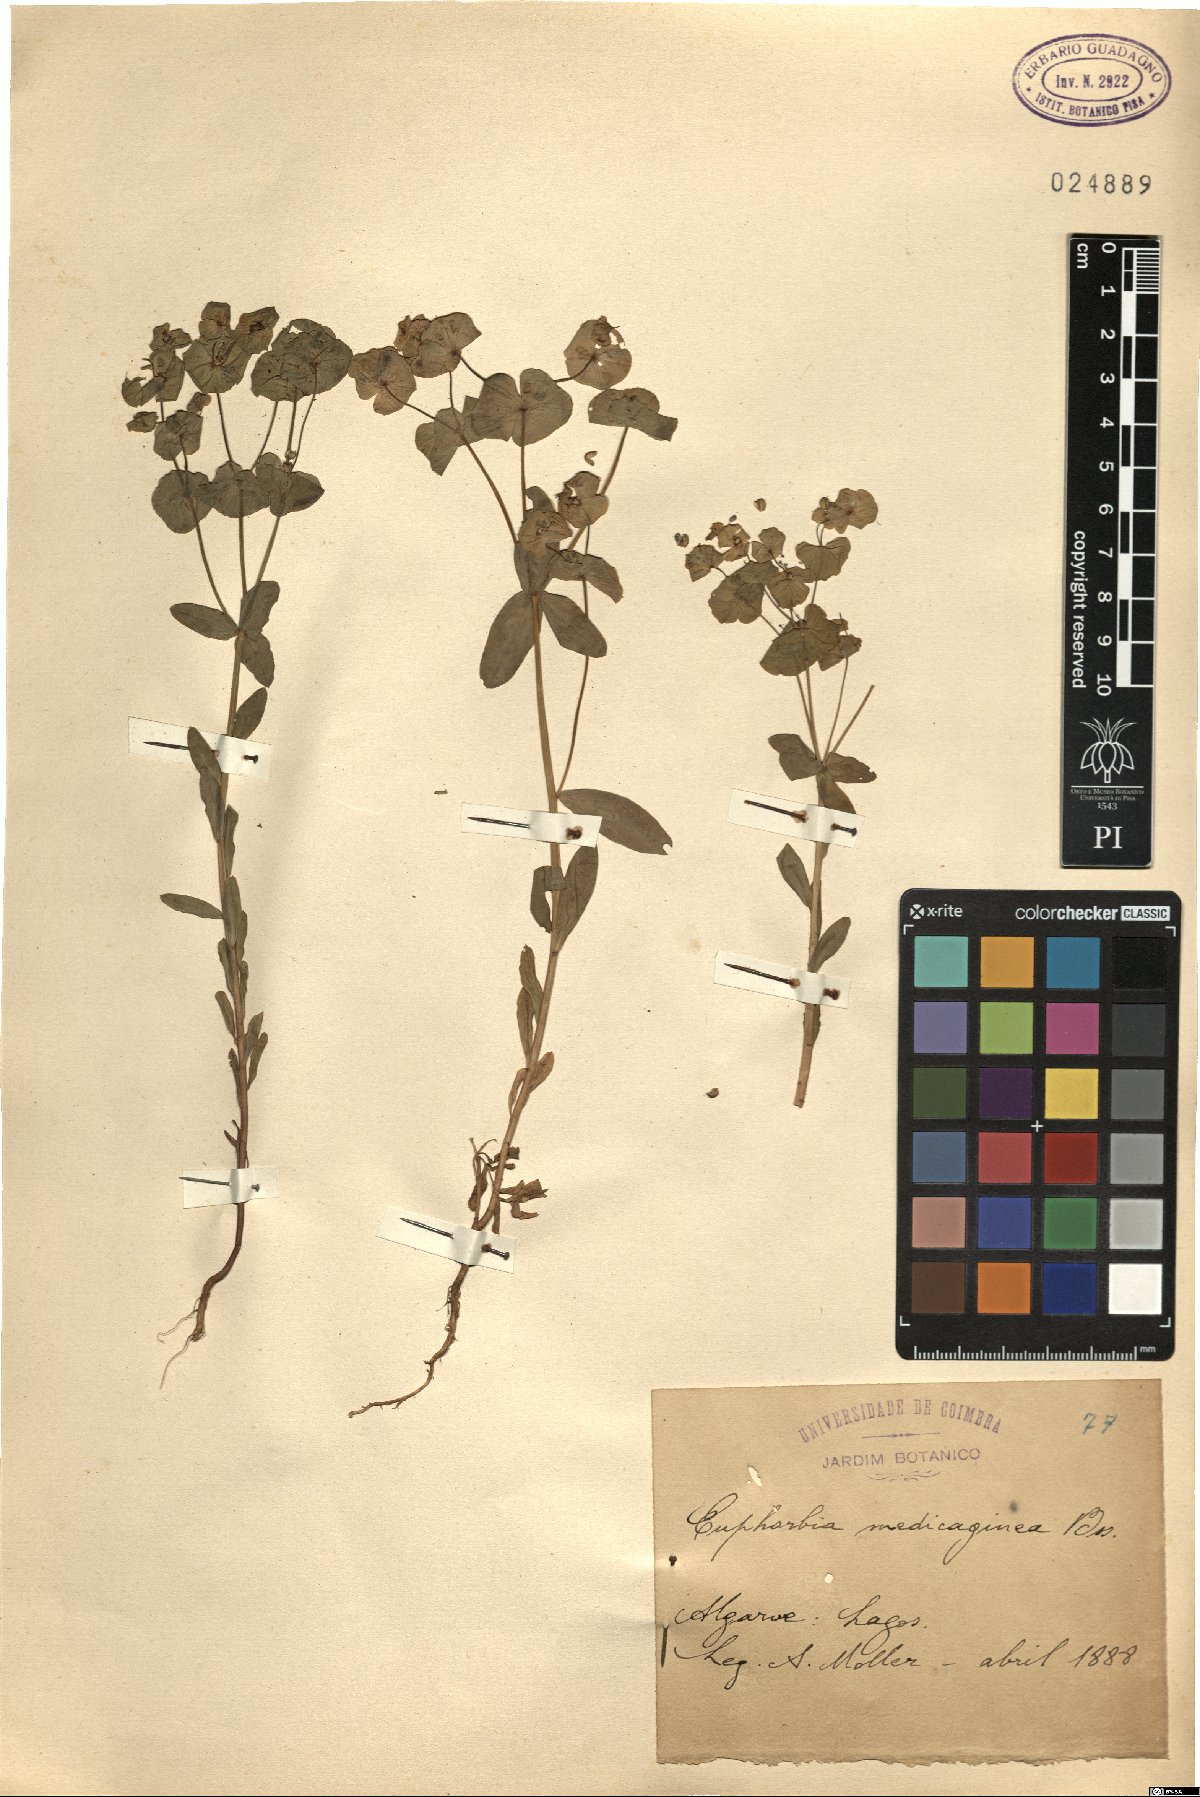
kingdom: Plantae
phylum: Tracheophyta
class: Magnoliopsida
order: Malpighiales
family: Euphorbiaceae
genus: Euphorbia
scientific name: Euphorbia medicaginea
